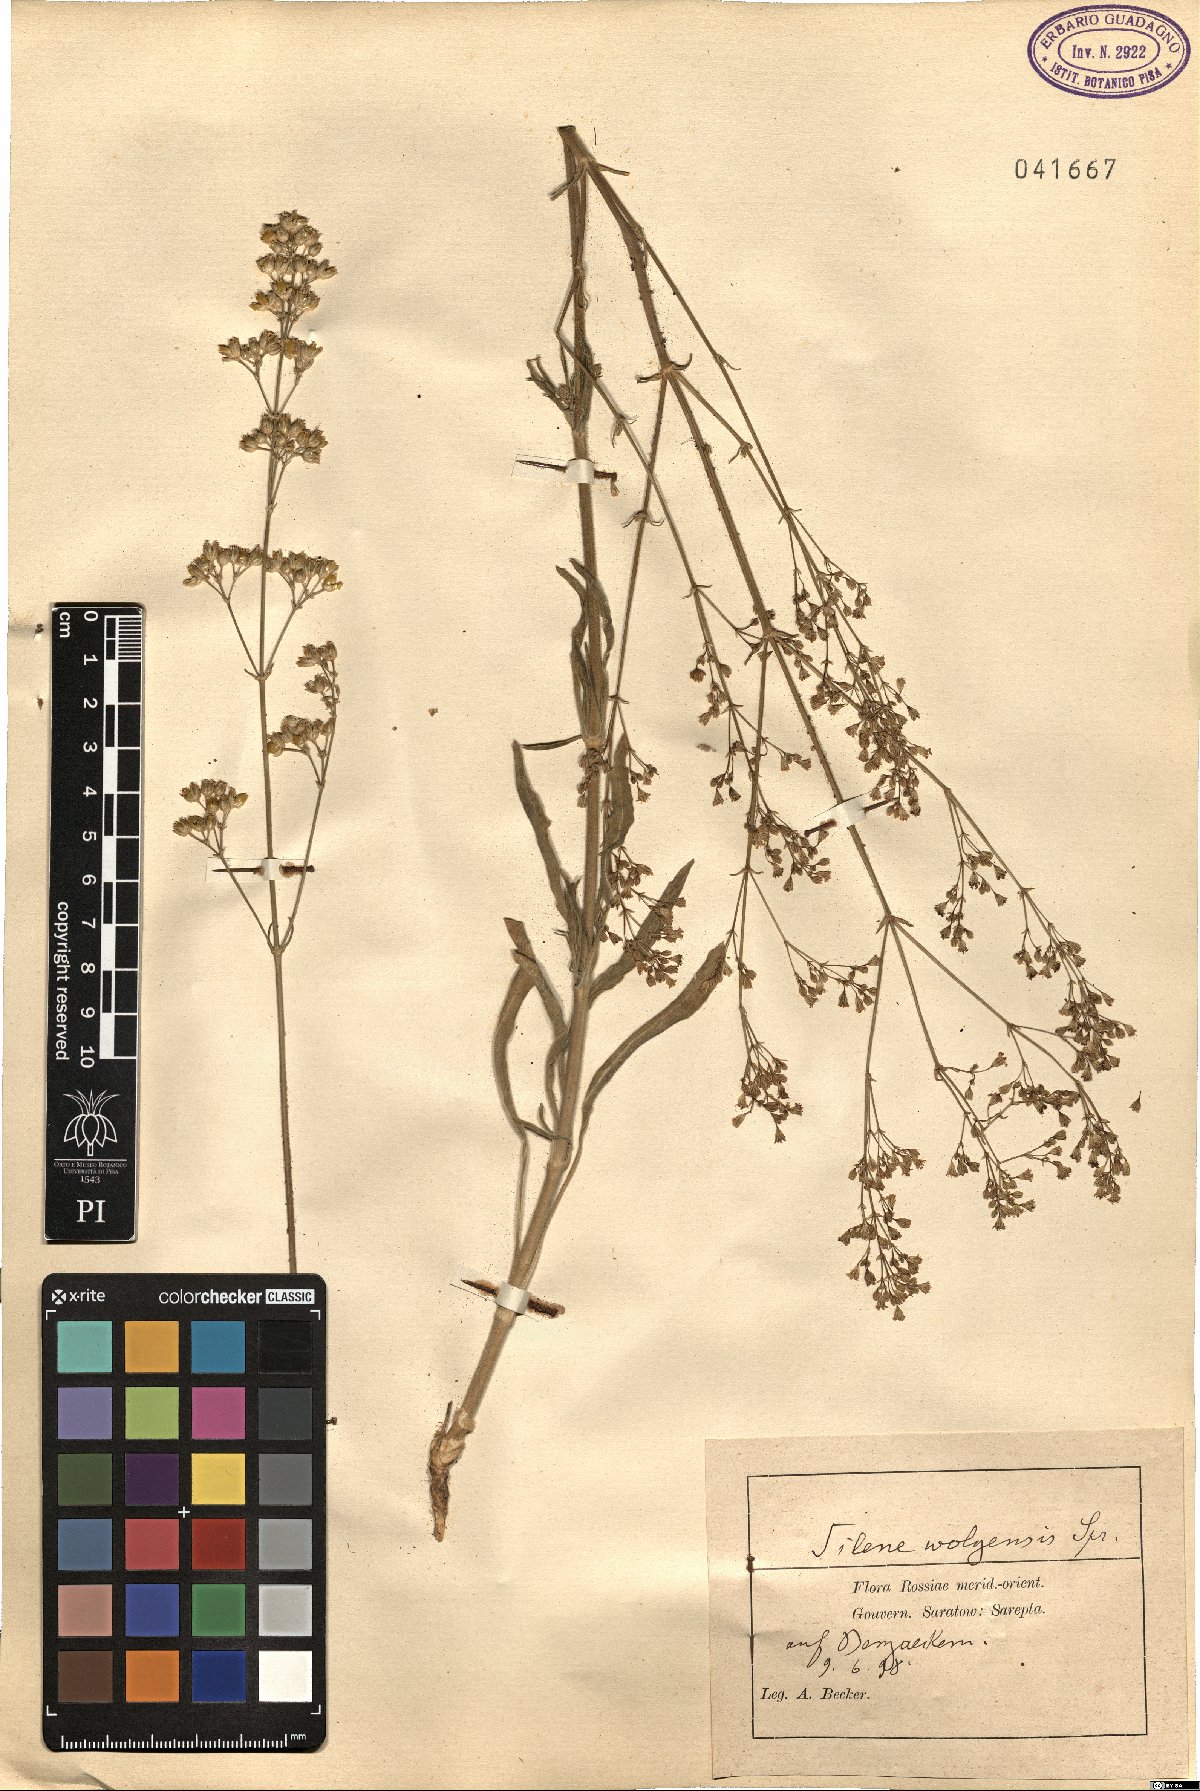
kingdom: Plantae
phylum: Tracheophyta
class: Magnoliopsida
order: Caryophyllales
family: Caryophyllaceae
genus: Silene
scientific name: Silene wolgensis
